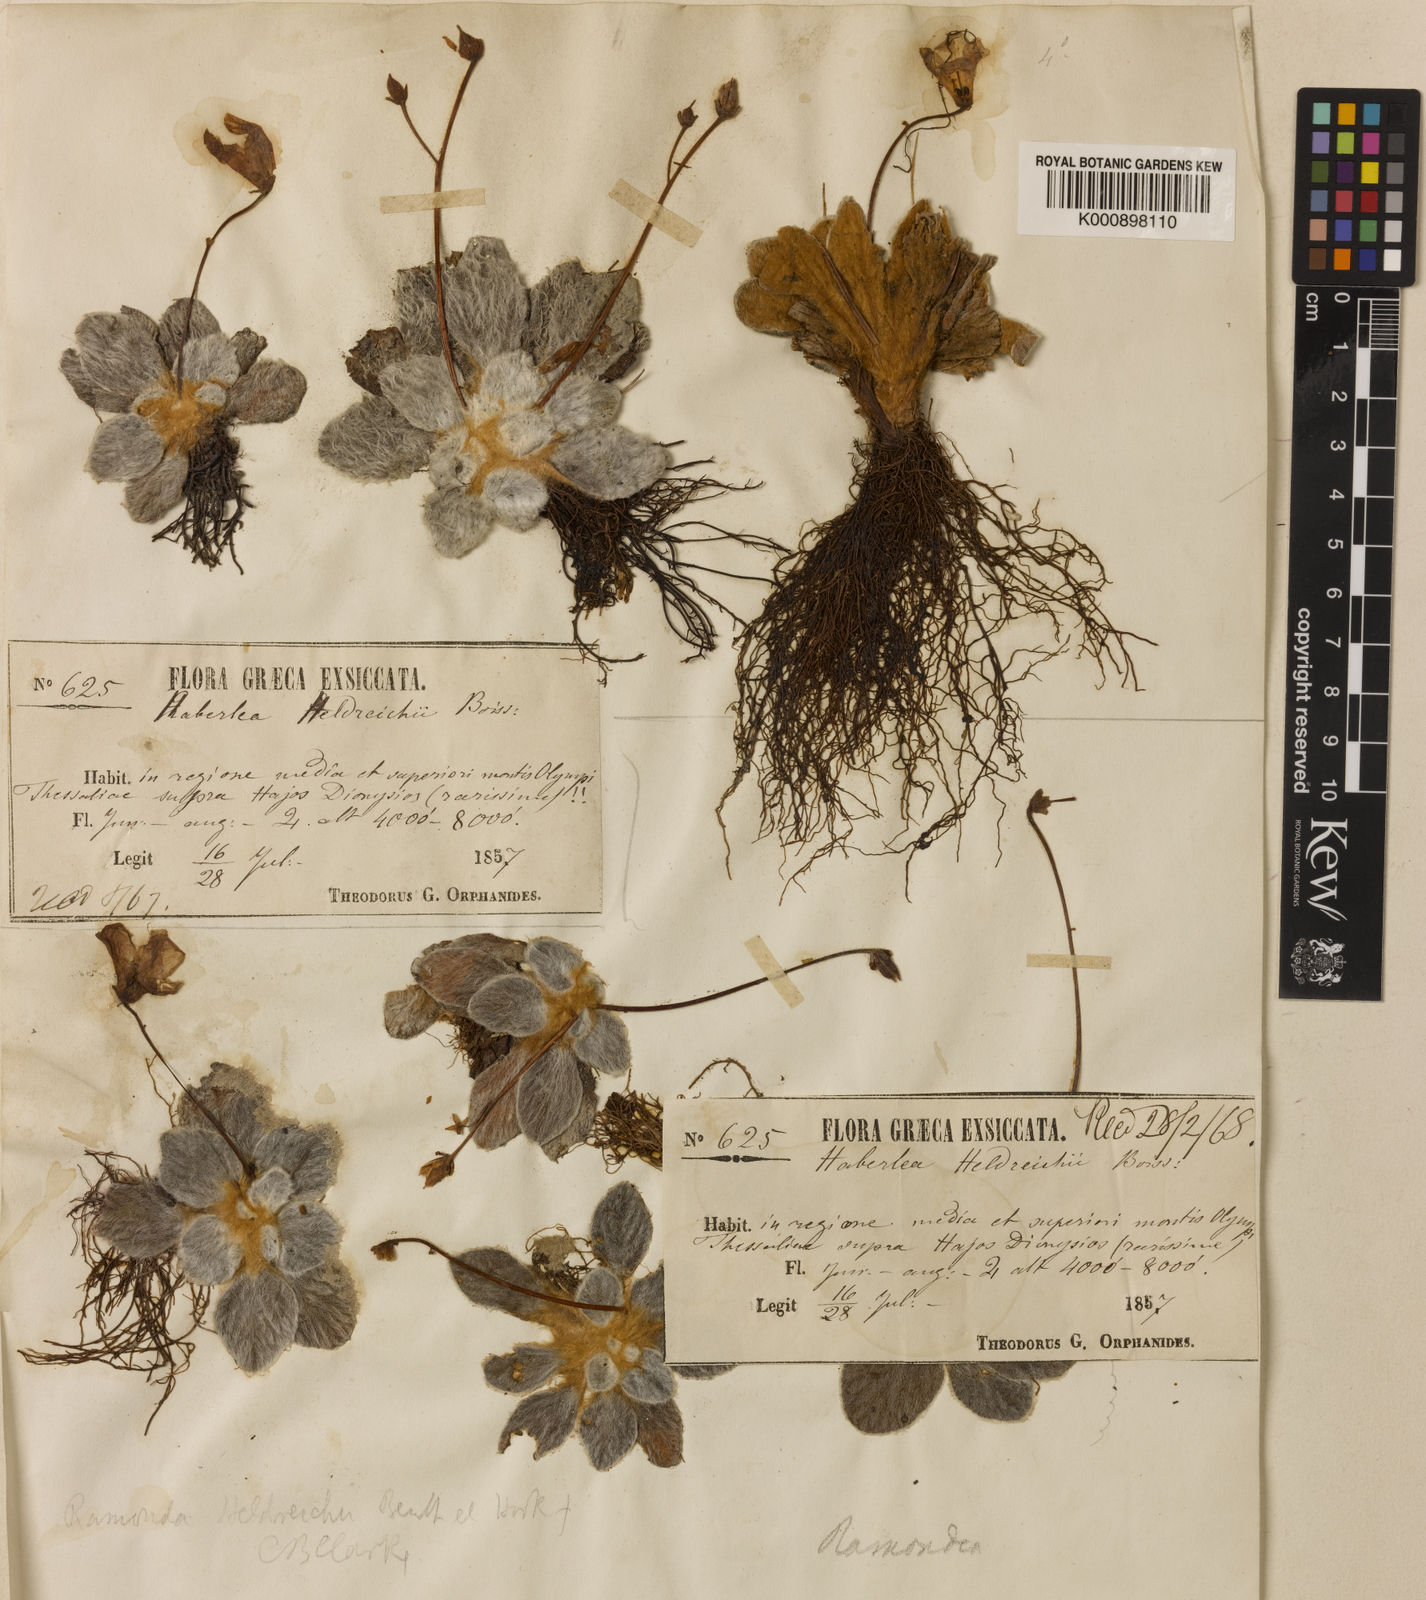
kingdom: Plantae
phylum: Tracheophyta
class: Magnoliopsida
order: Lamiales
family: Gesneriaceae
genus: Ramonda
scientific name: Ramonda
